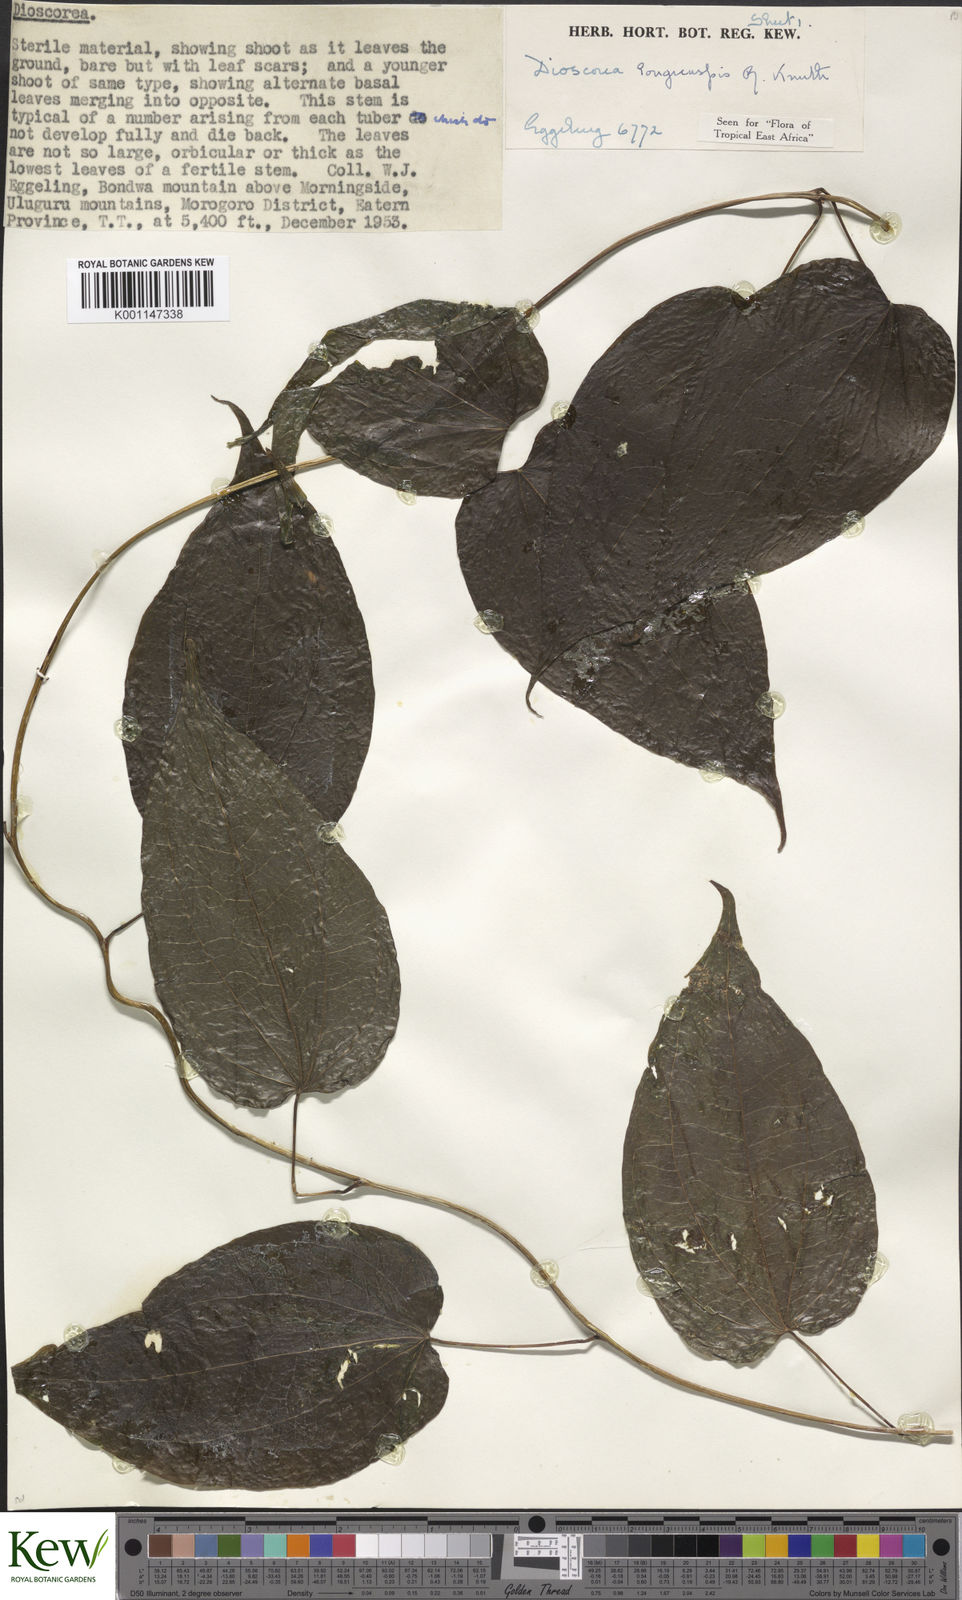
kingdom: Plantae
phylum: Tracheophyta
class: Liliopsida
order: Dioscoreales
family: Dioscoreaceae
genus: Dioscorea
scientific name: Dioscorea longicuspis
